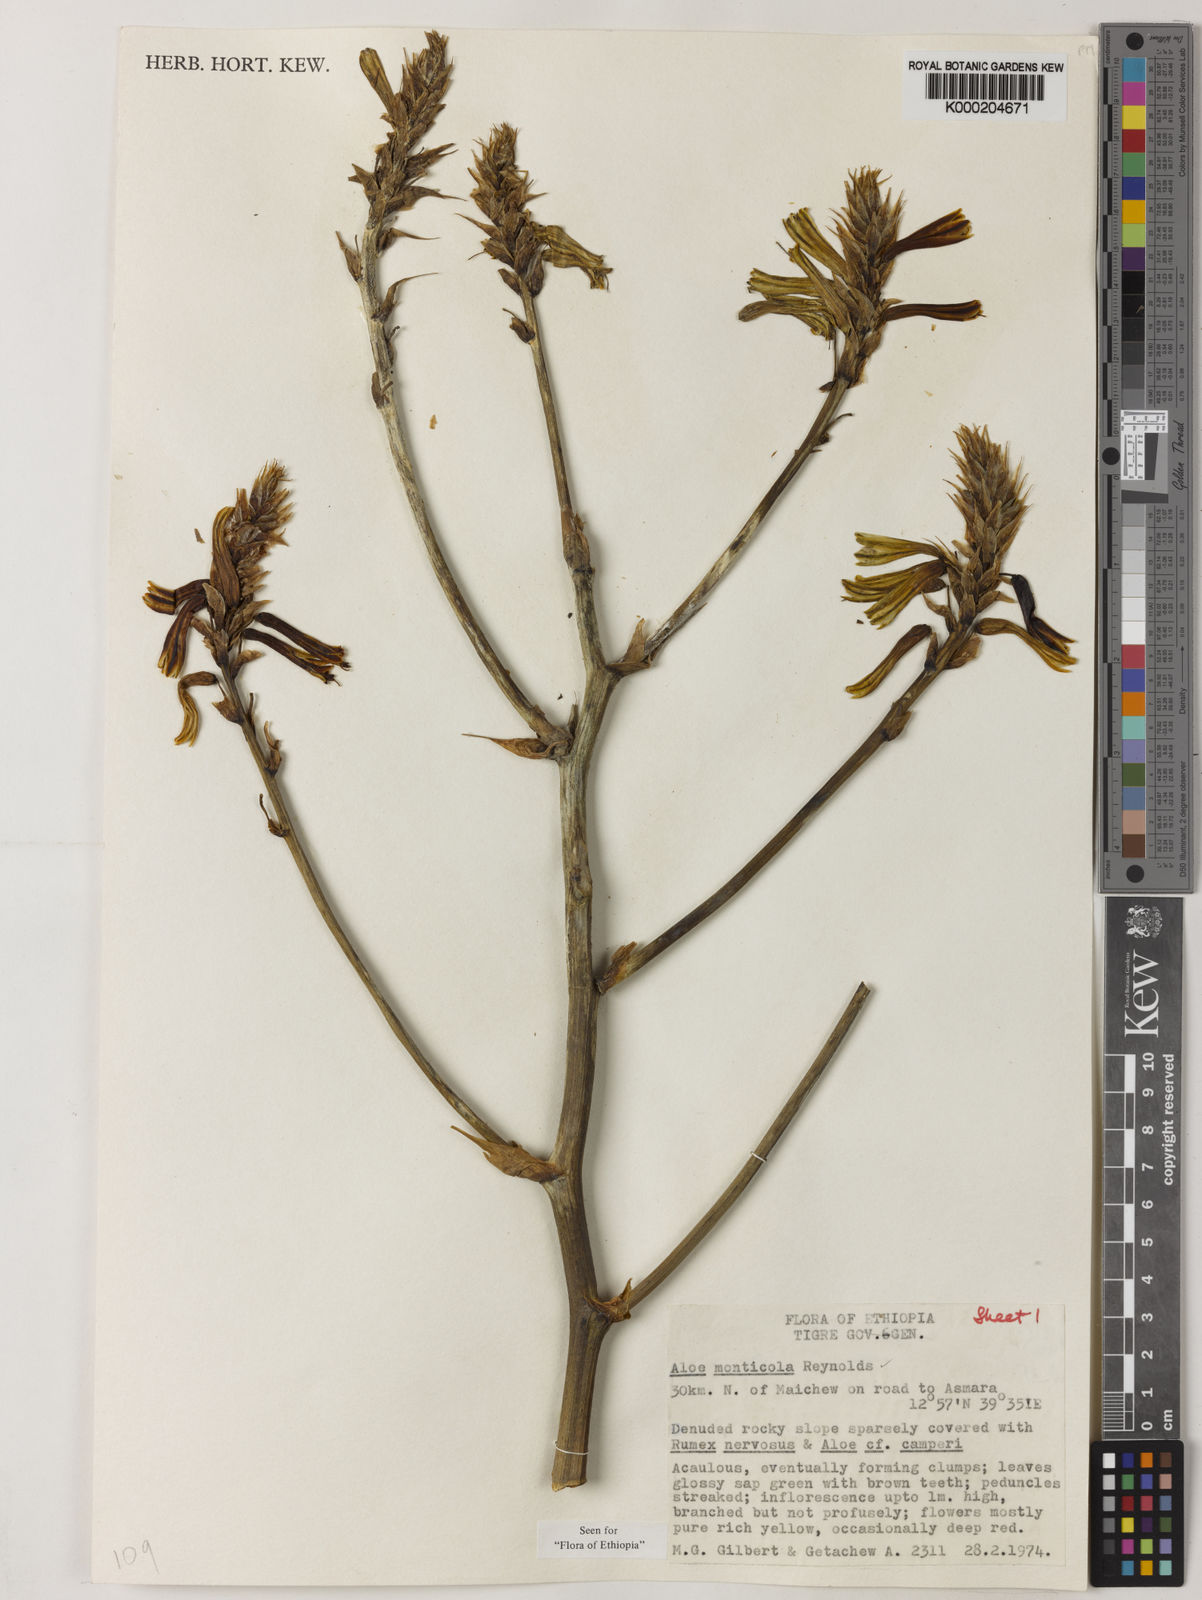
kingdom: Plantae
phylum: Tracheophyta
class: Liliopsida
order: Asparagales
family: Asphodelaceae
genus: Aloe
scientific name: Aloe monticola
